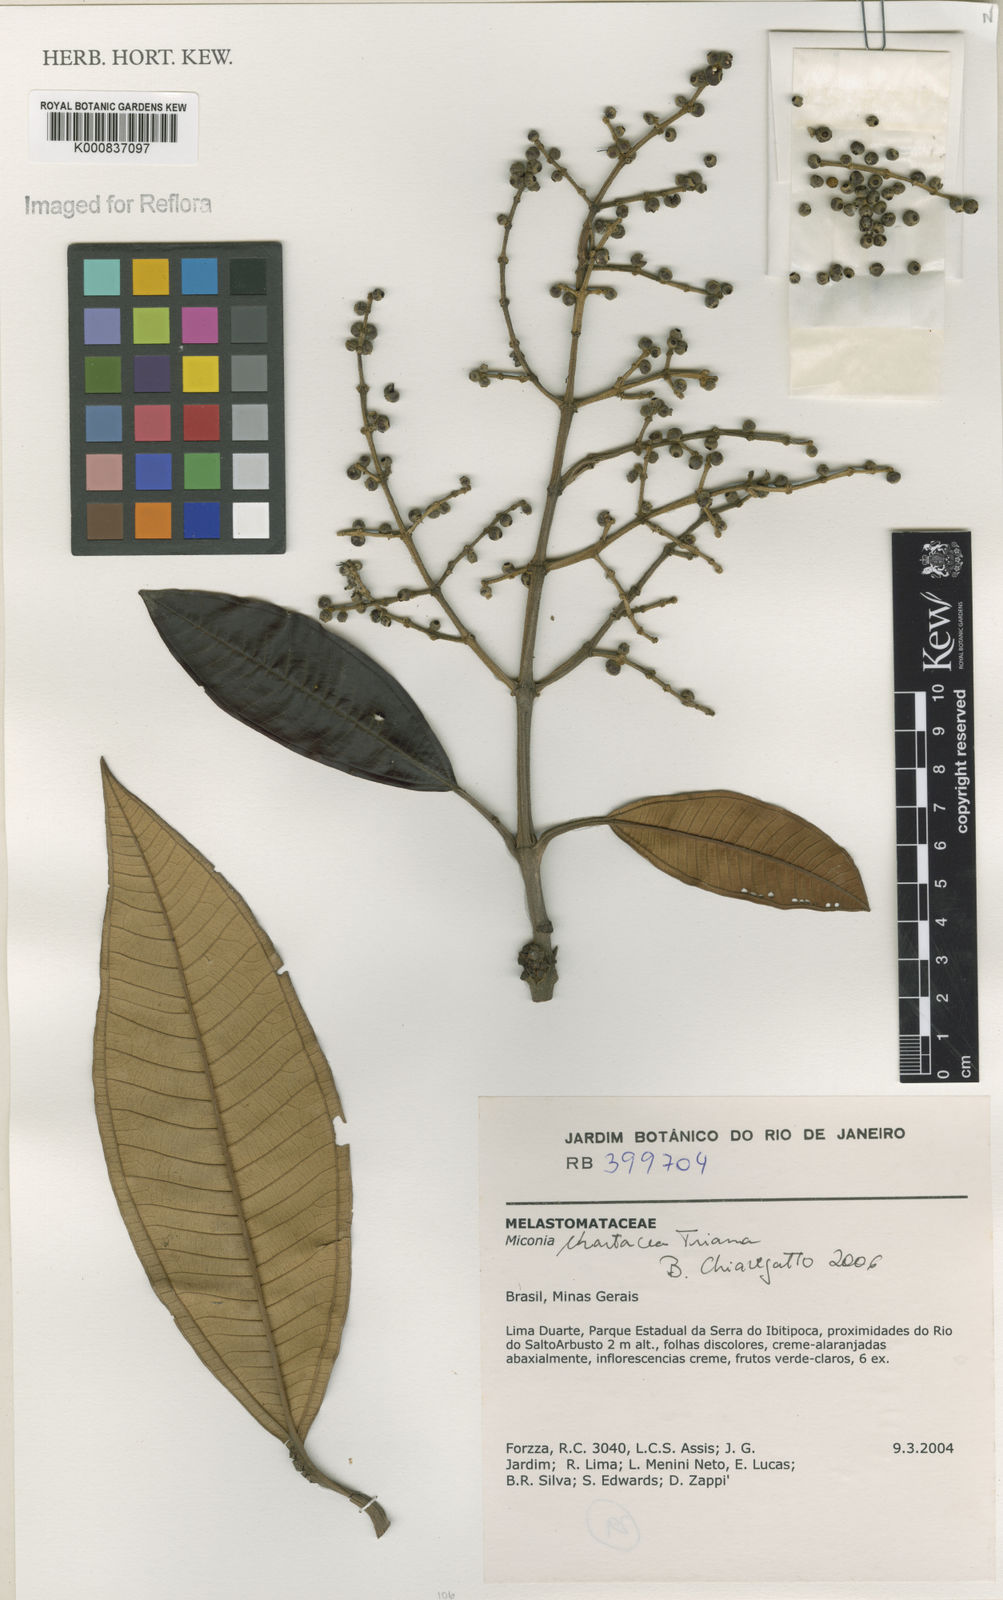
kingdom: Plantae
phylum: Tracheophyta
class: Magnoliopsida
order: Myrtales
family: Melastomataceae
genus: Miconia
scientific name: Miconia chartacea
